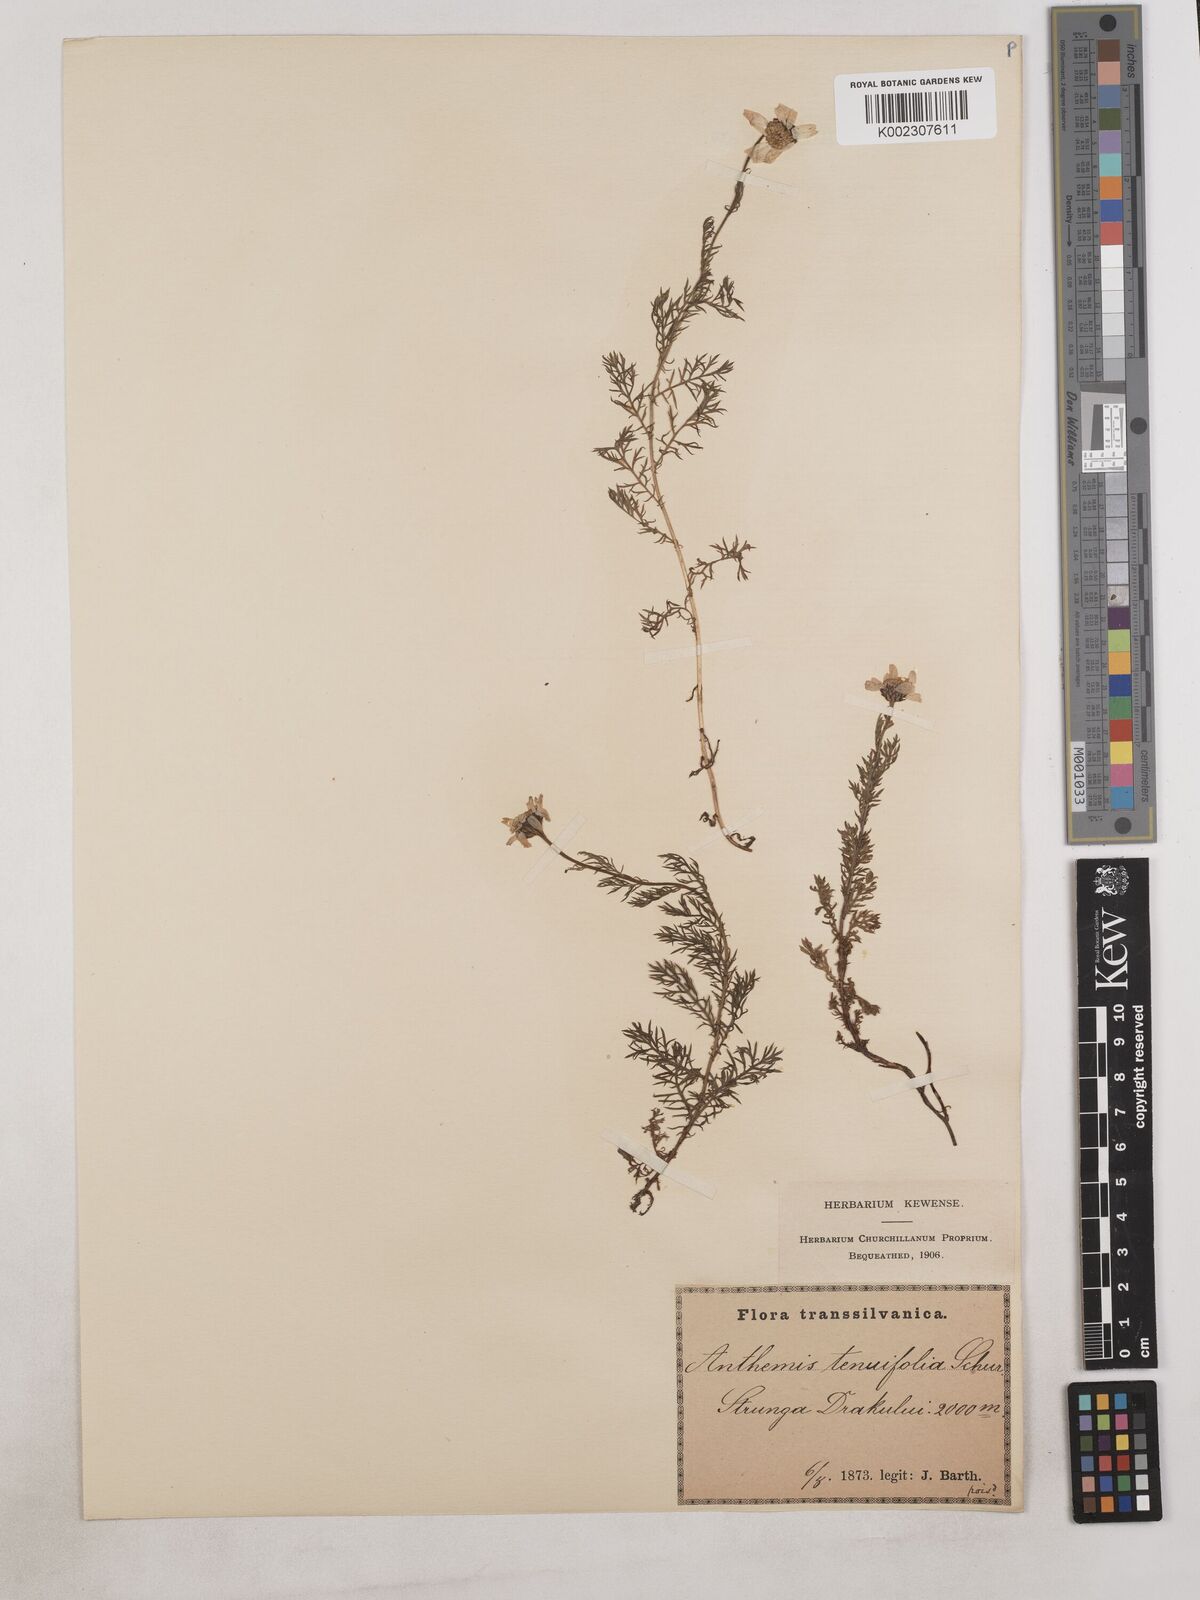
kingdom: Plantae
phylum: Tracheophyta
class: Magnoliopsida
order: Asterales
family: Asteraceae
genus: Achillea
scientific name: Achillea millefolium
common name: Yarrow
